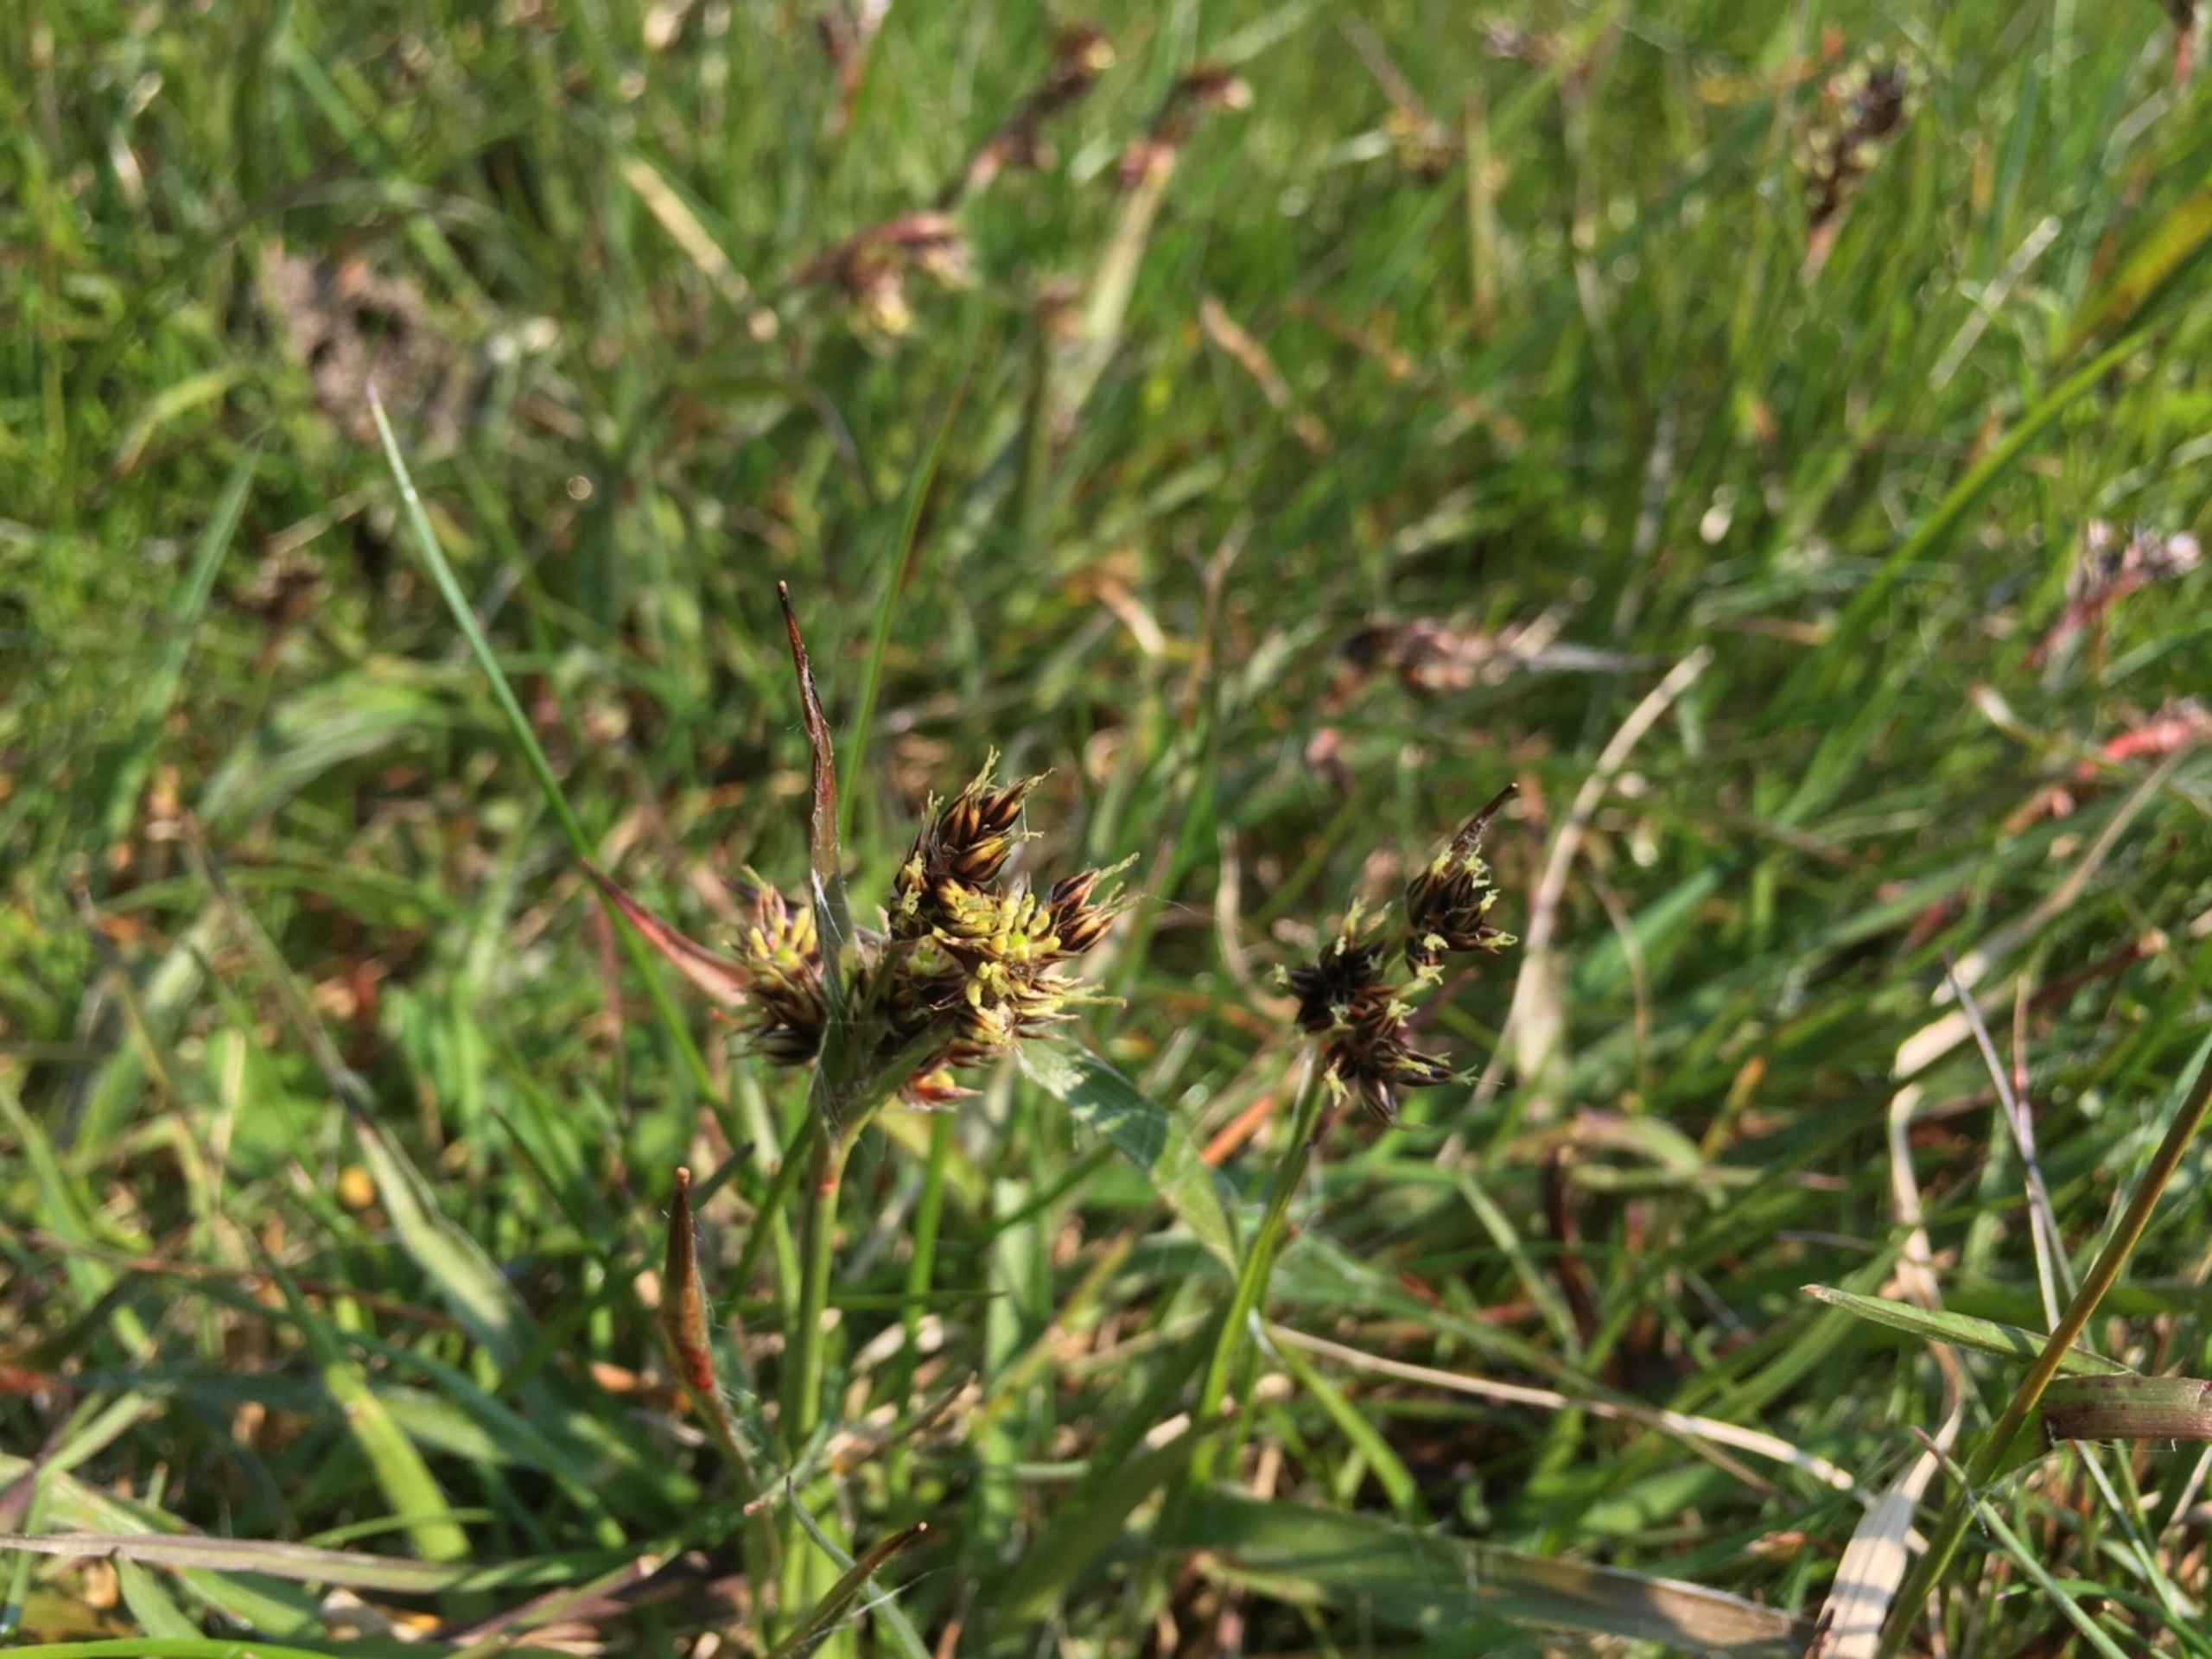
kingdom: Plantae
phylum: Tracheophyta
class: Liliopsida
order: Poales
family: Juncaceae
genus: Luzula
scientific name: Luzula campestris
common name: Mark-frytle
